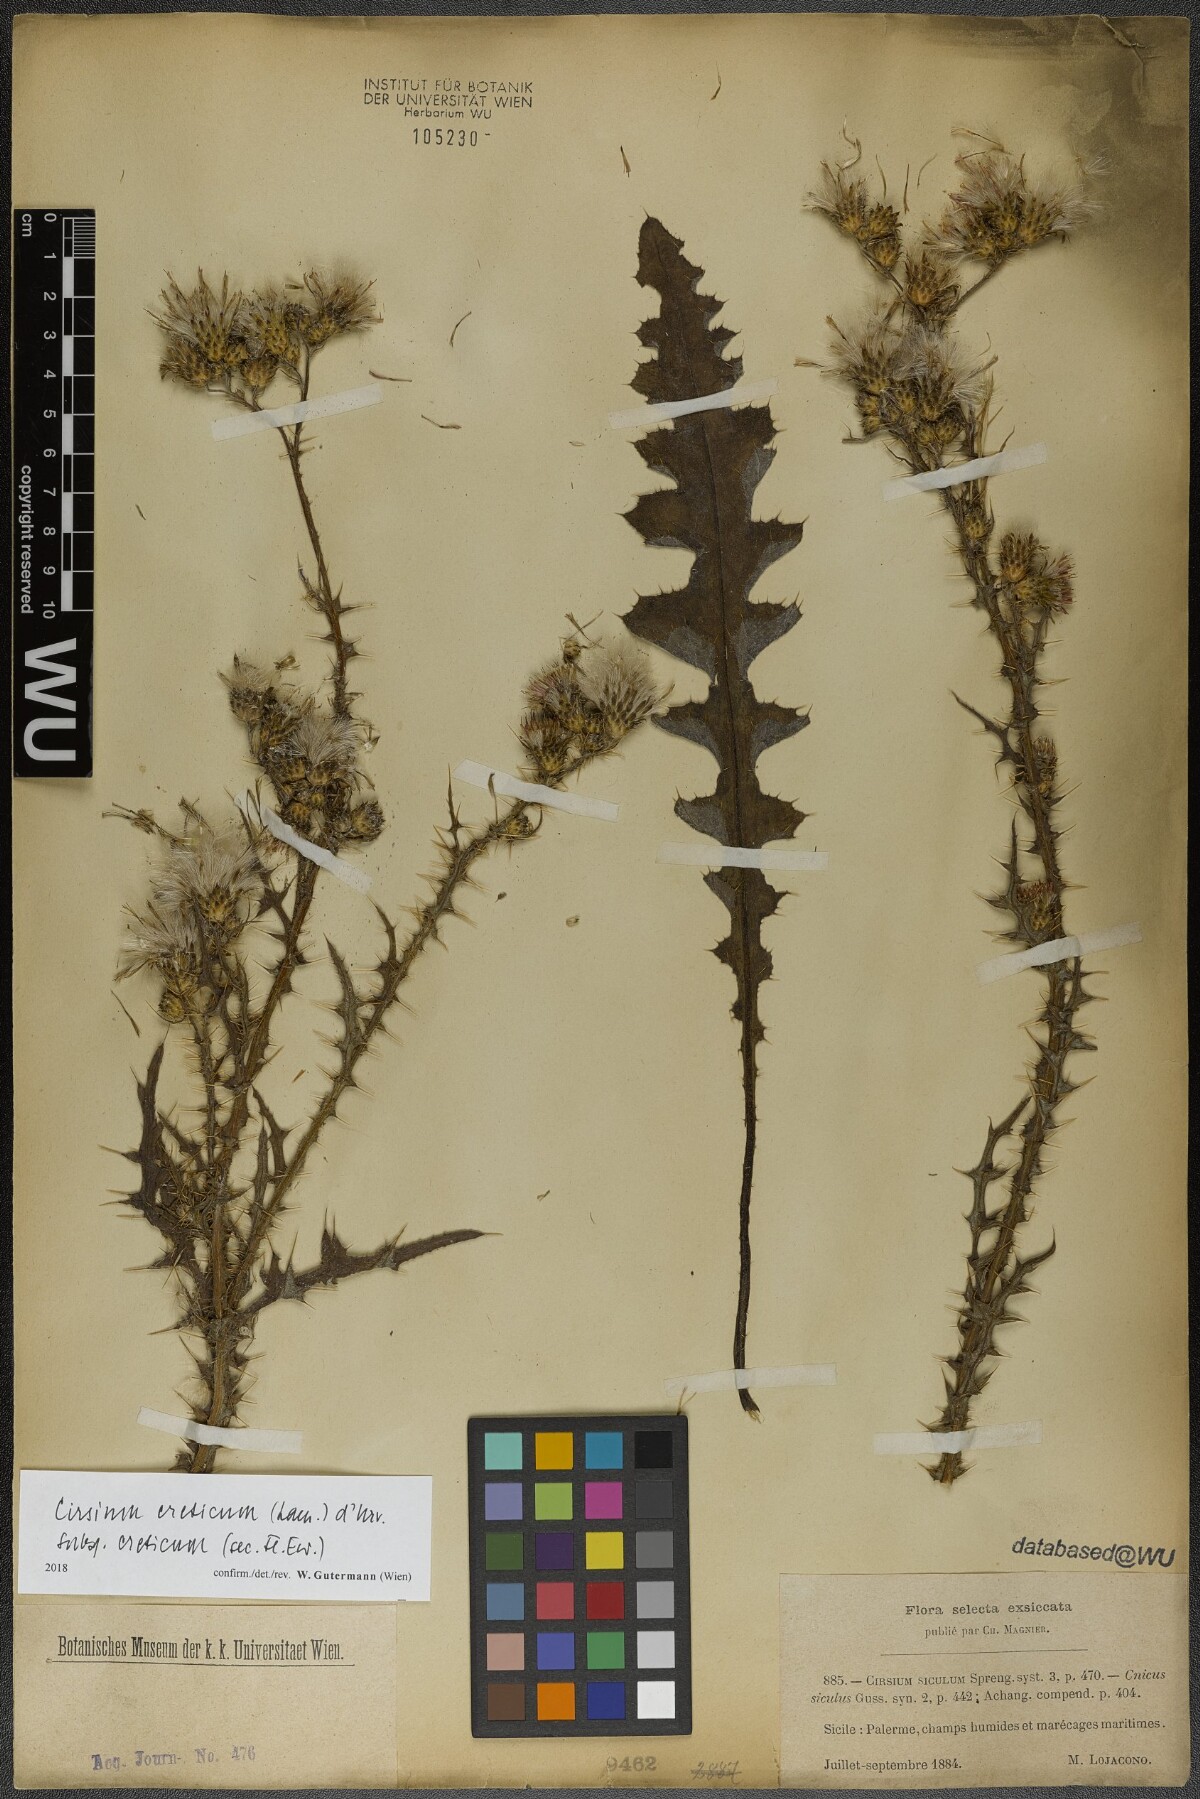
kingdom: Plantae
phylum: Tracheophyta
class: Magnoliopsida
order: Asterales
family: Asteraceae
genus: Cirsium
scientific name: Cirsium creticum
